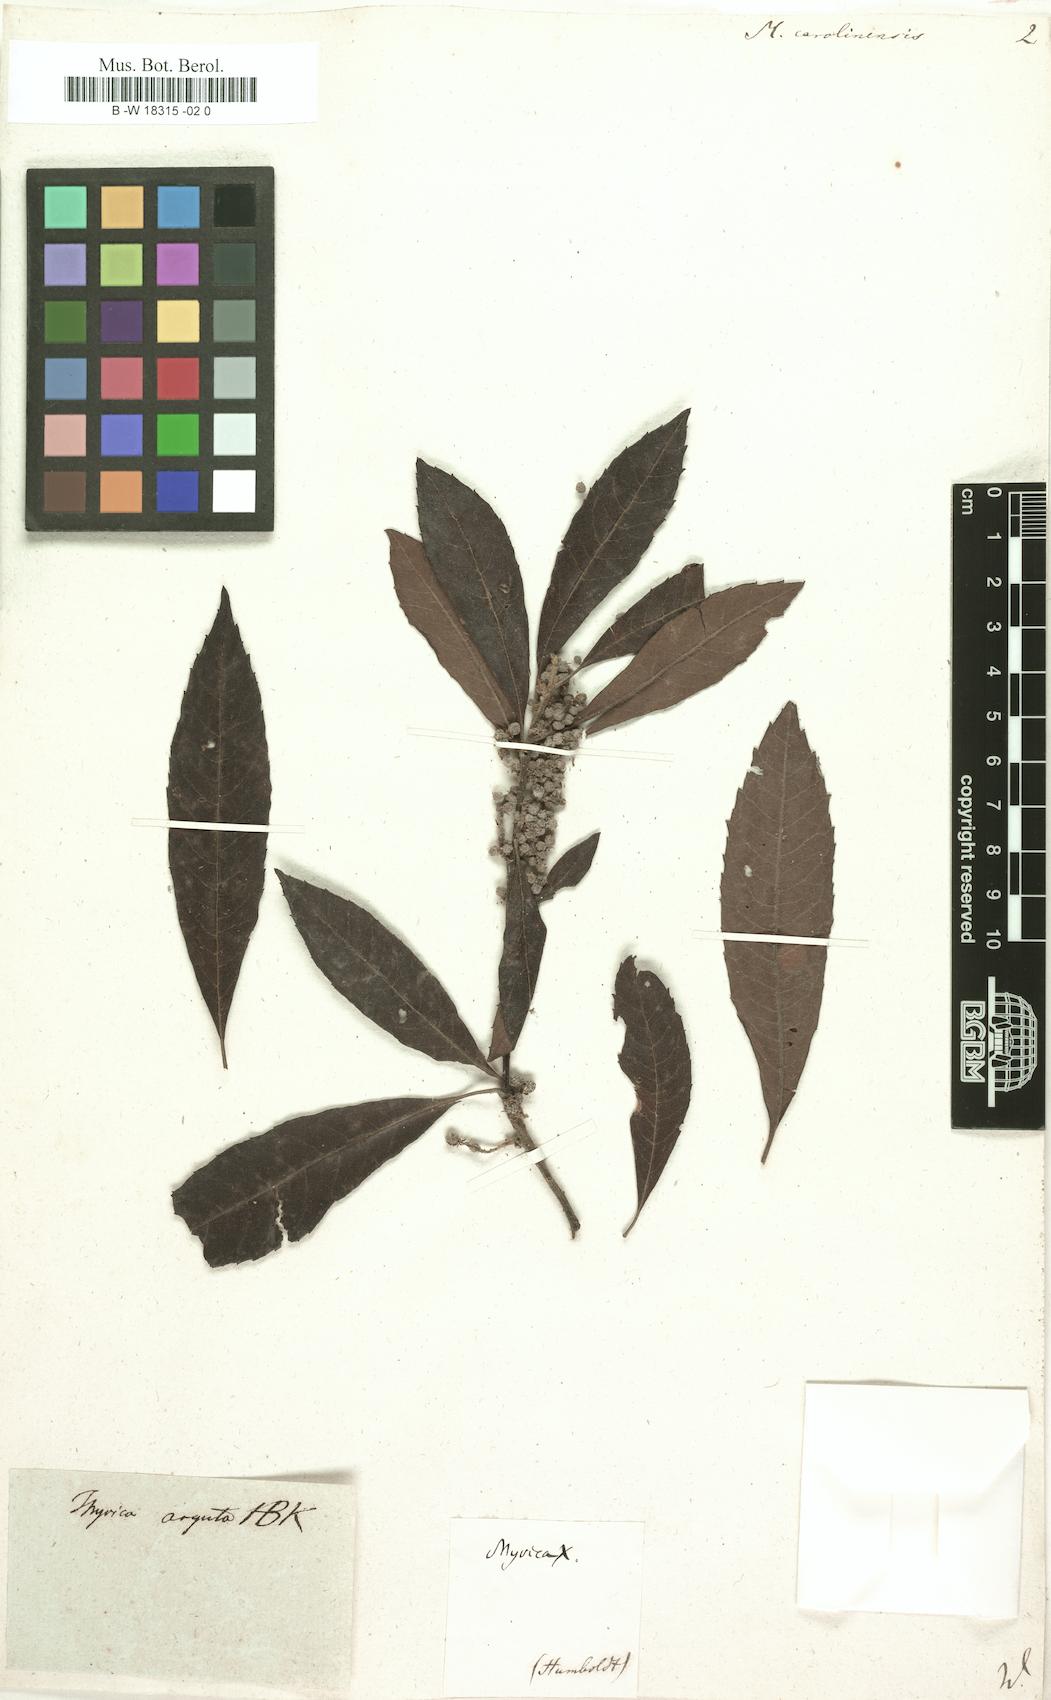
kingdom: Plantae
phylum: Tracheophyta
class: Magnoliopsida
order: Fagales
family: Myricaceae
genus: Morella
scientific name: Morella caroliniensis
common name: Evergreen bayberry
